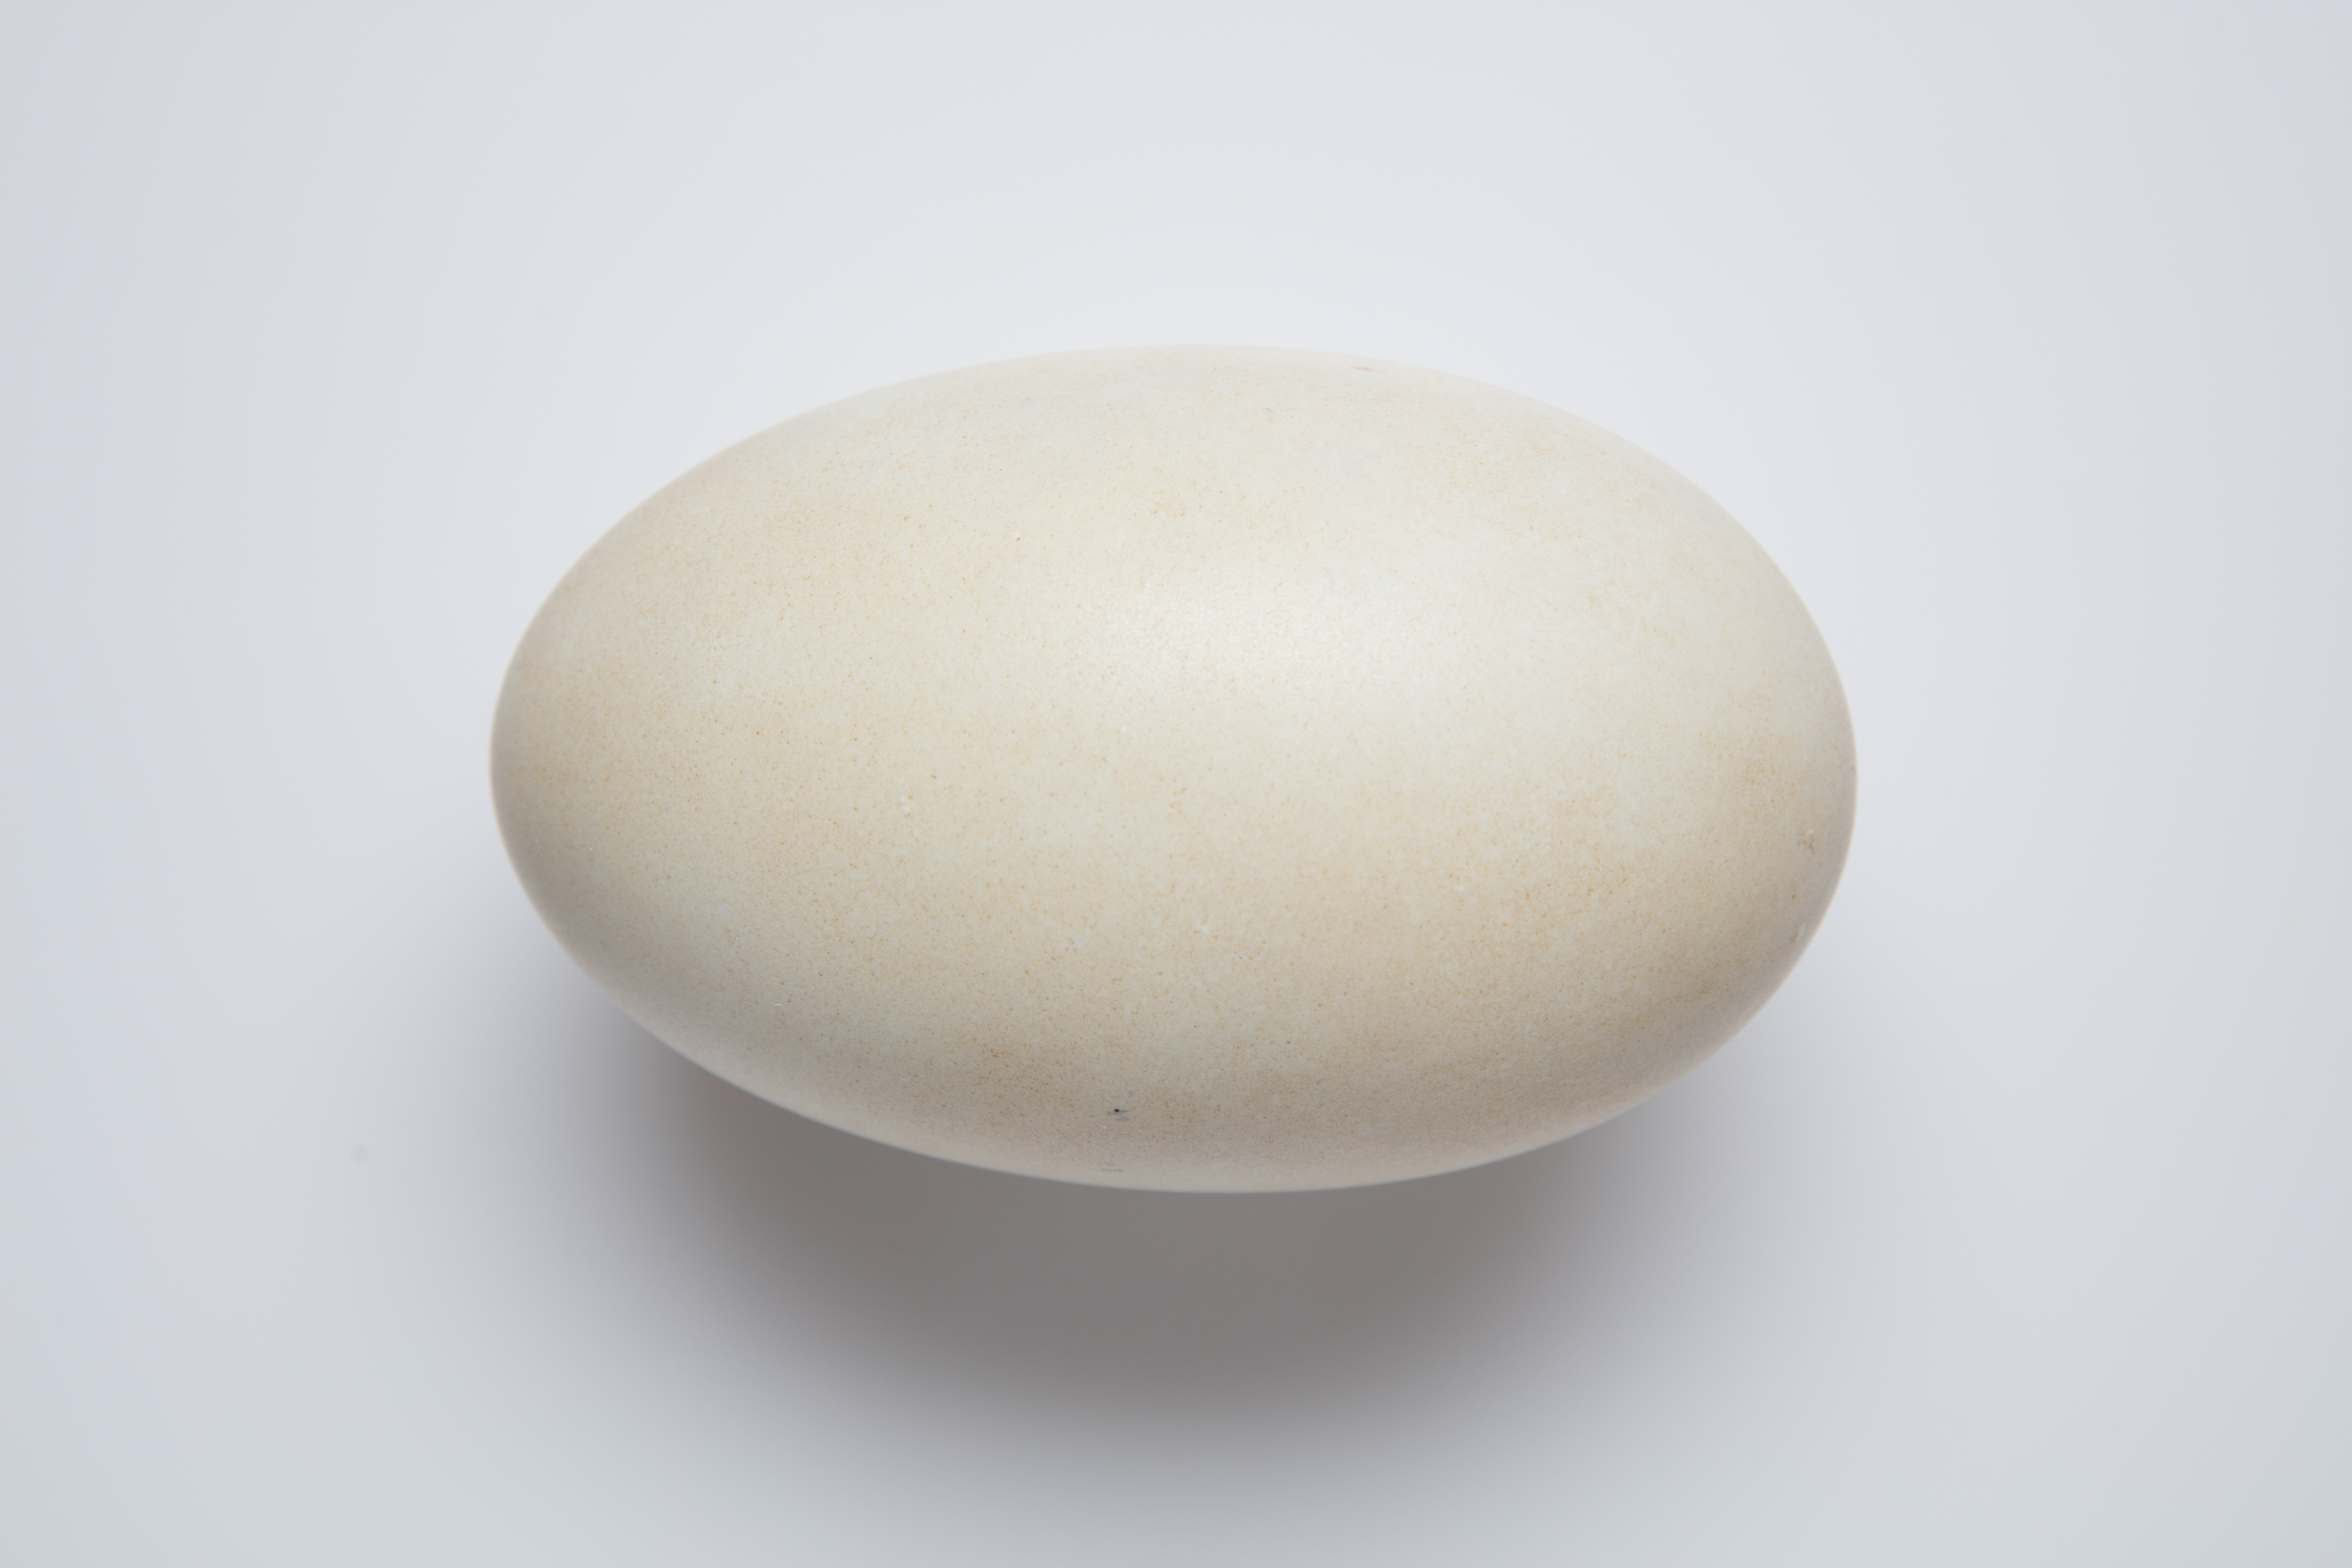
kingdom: Animalia
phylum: Chordata
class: Aves
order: Apterygiformes
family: Apterygidae
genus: Apteryx
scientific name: Apteryx
